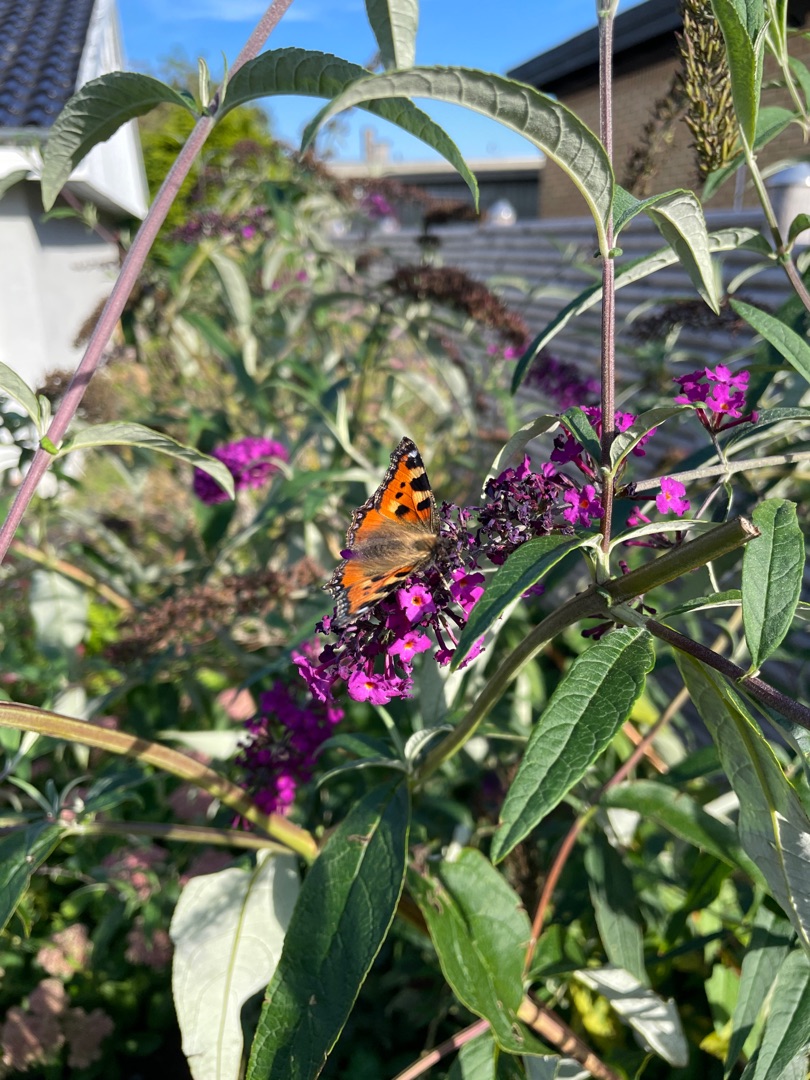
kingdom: Animalia
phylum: Arthropoda
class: Insecta
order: Lepidoptera
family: Nymphalidae
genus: Aglais
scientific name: Aglais urticae
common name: Nældens takvinge
